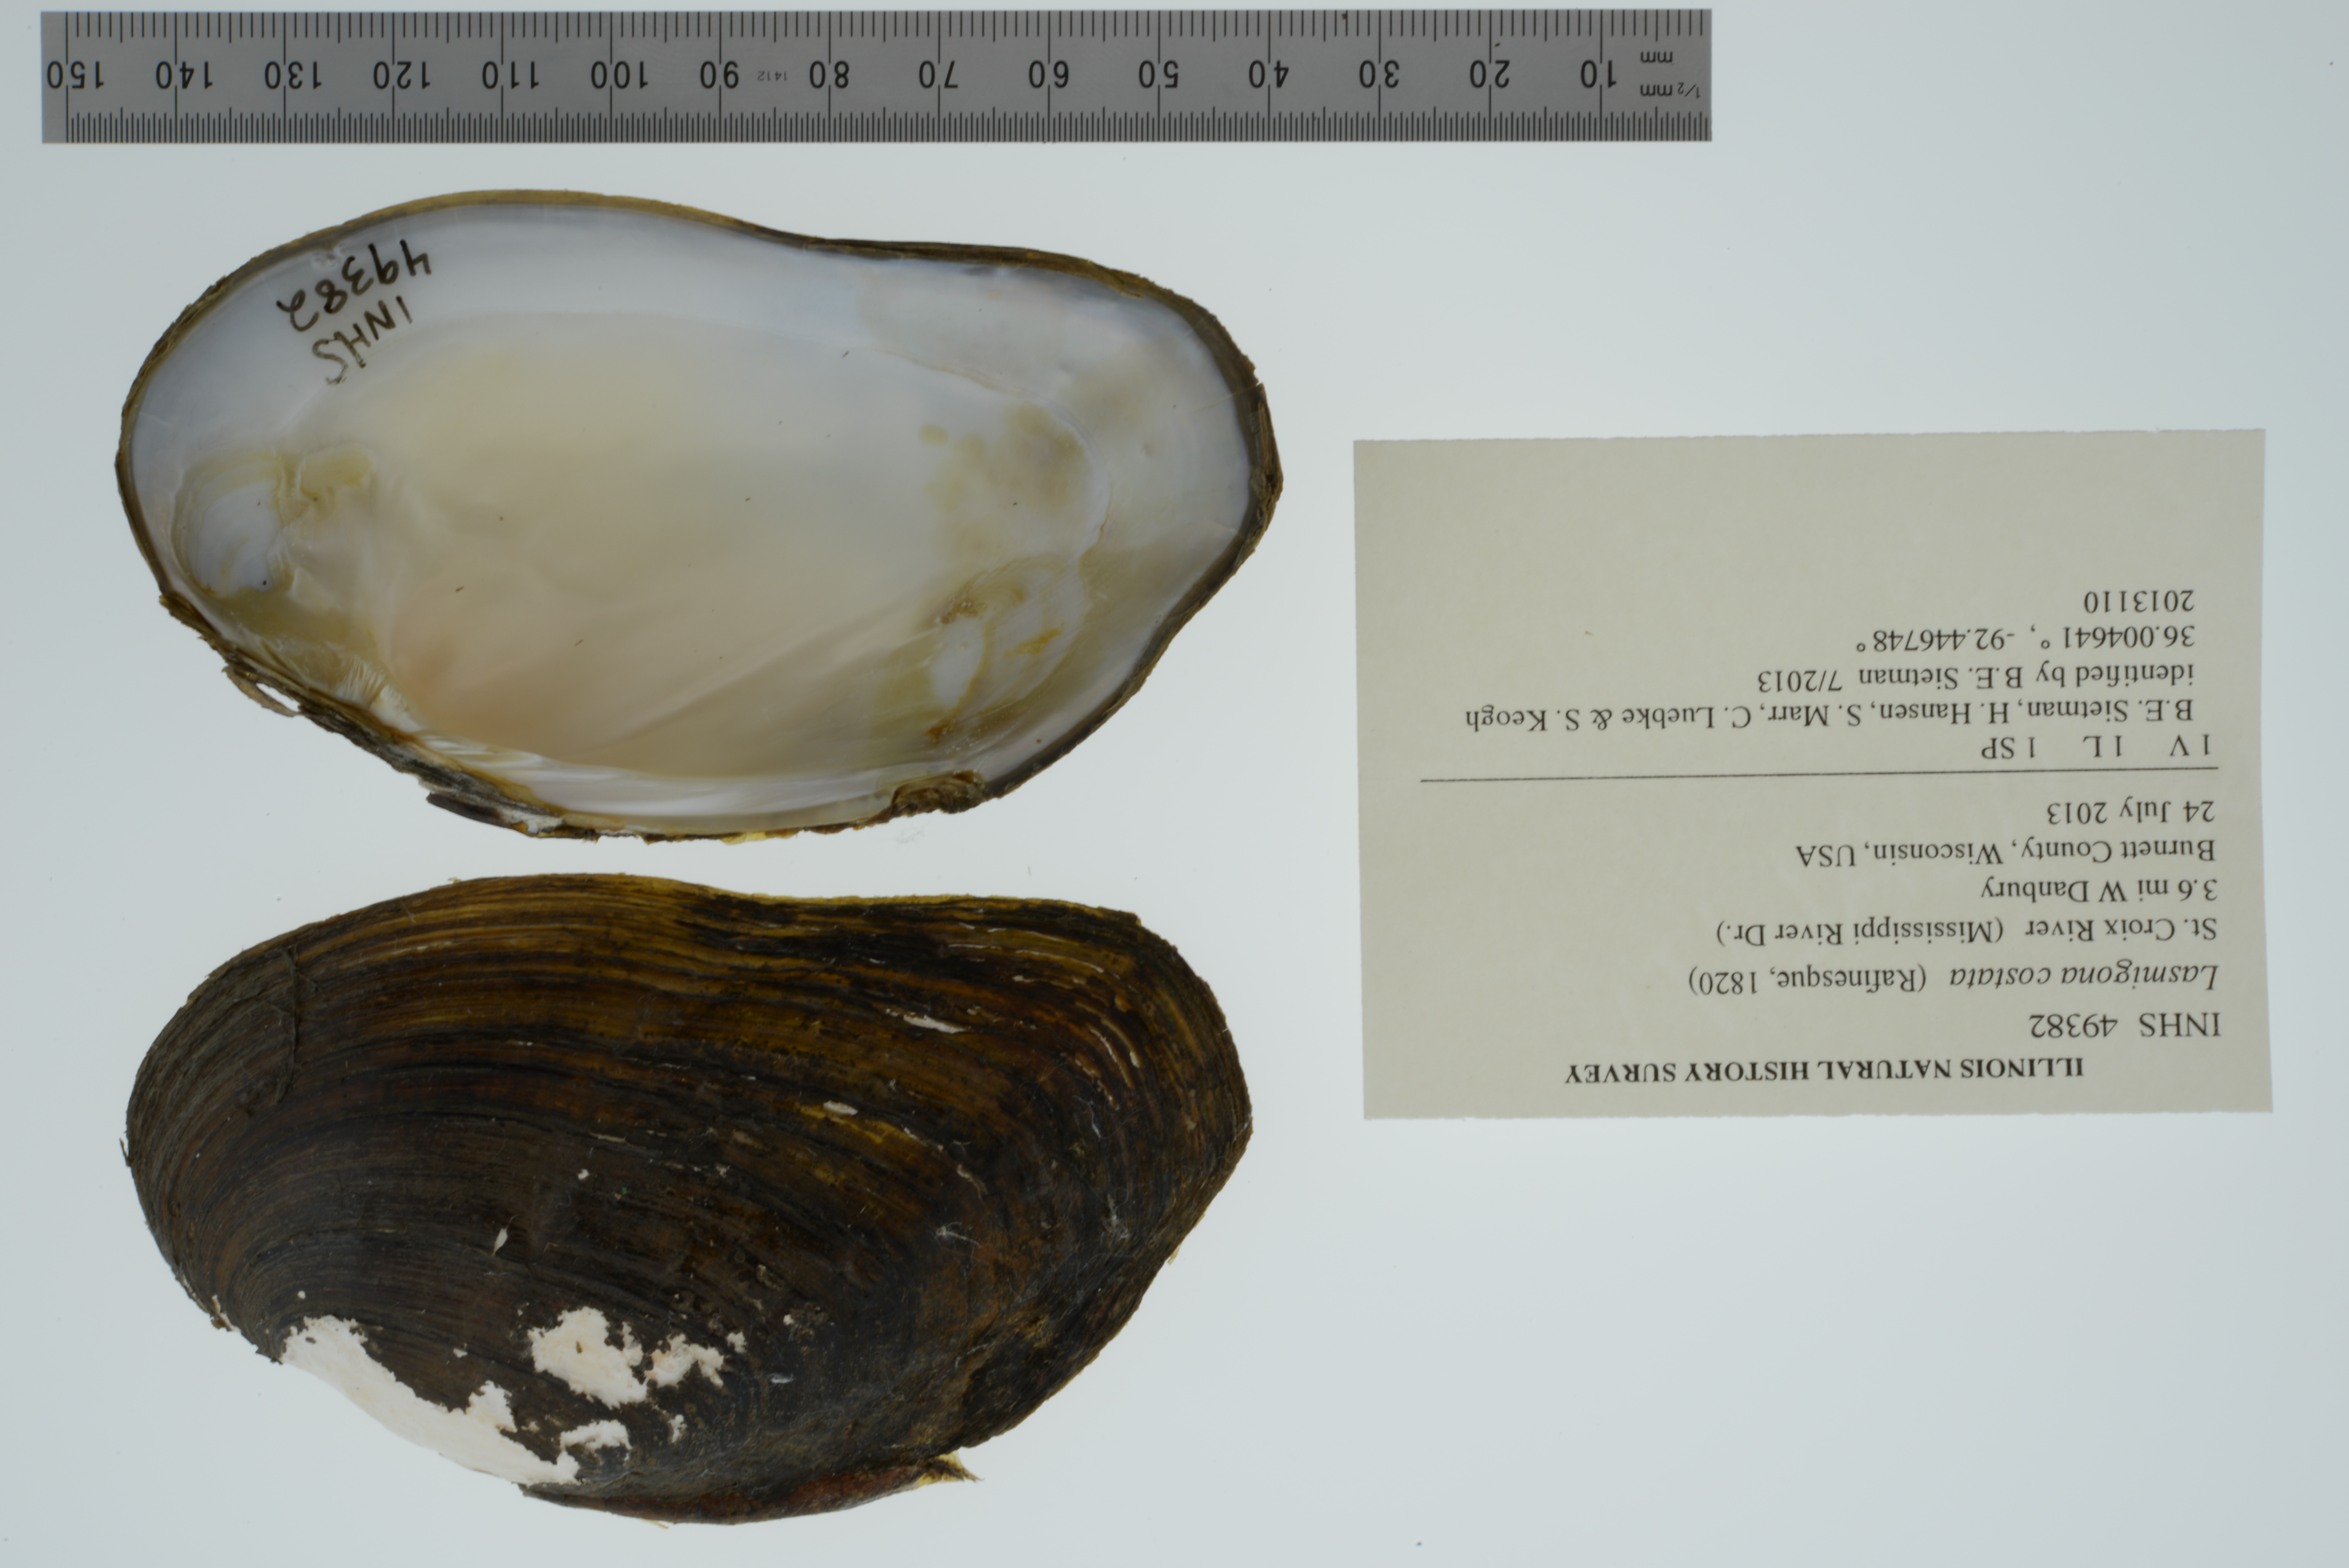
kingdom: Animalia
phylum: Mollusca
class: Bivalvia
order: Unionida
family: Unionidae
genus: Lasmigona
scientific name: Lasmigona costata
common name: Flutedshell
